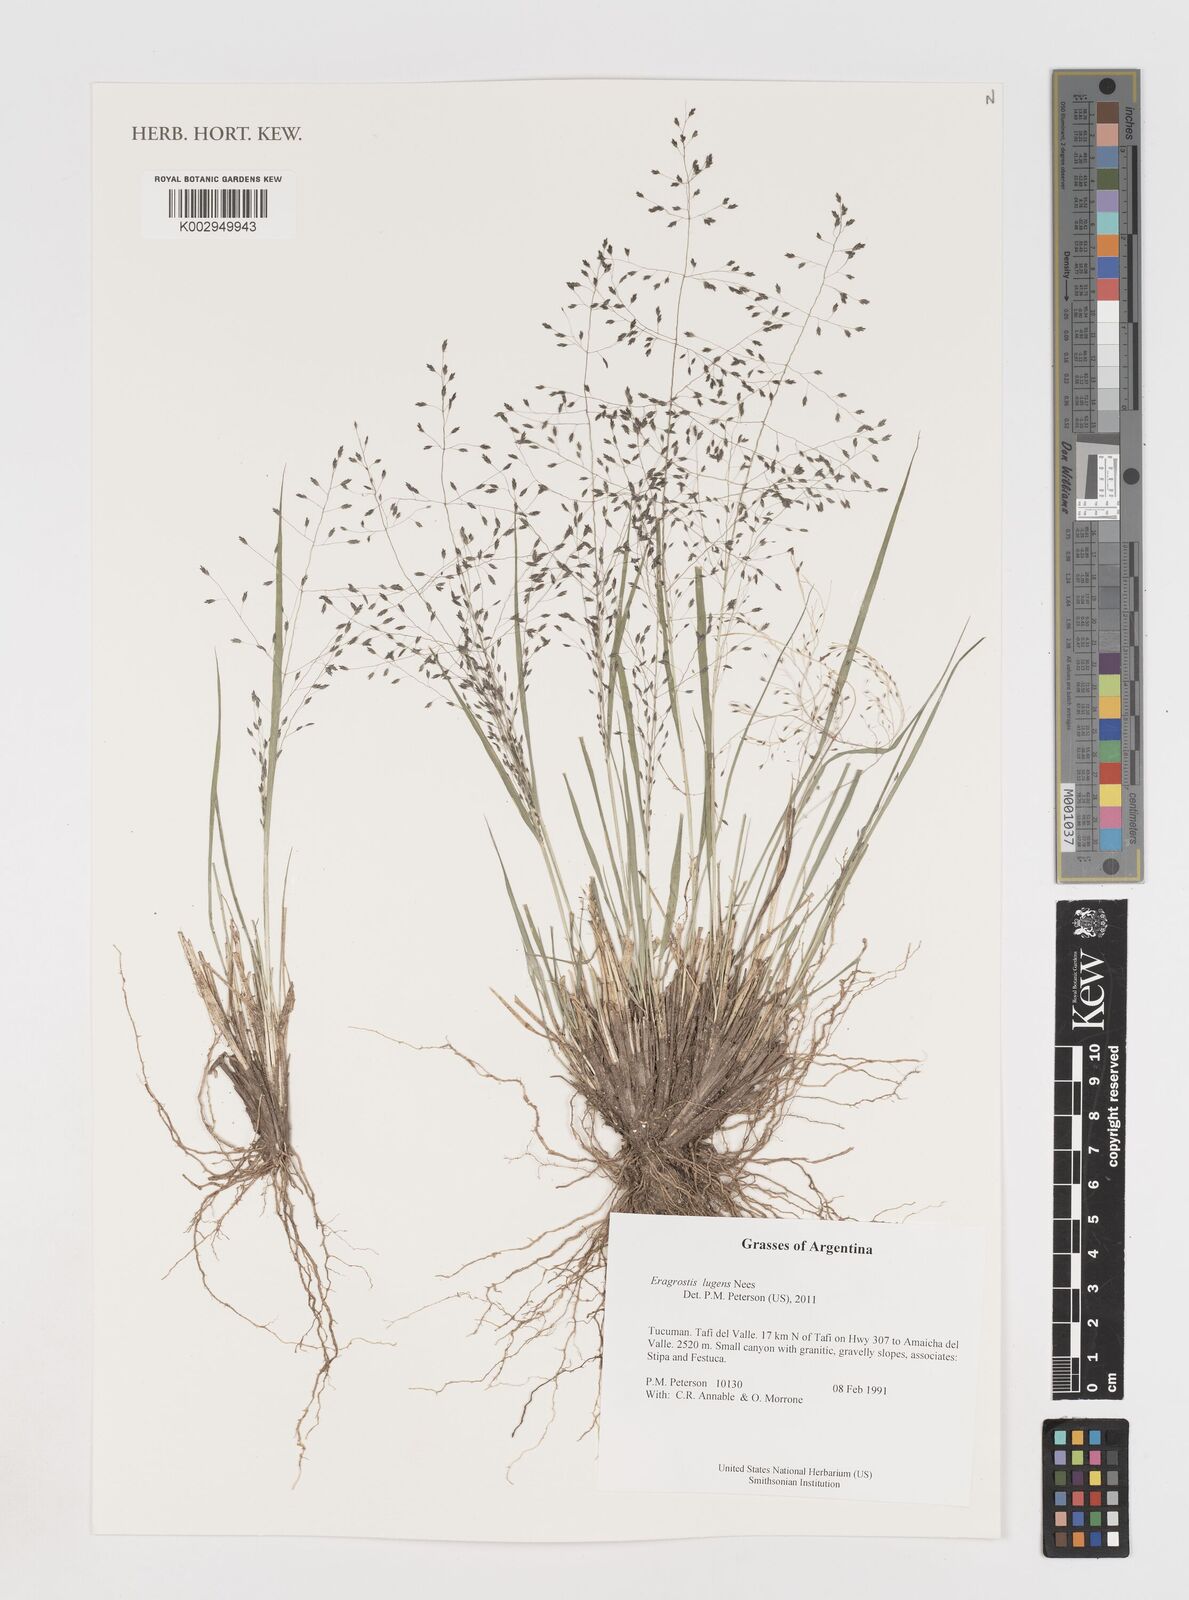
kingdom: Plantae
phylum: Tracheophyta
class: Liliopsida
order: Poales
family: Poaceae
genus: Eragrostis
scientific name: Eragrostis lugens
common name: Mourning love grass
